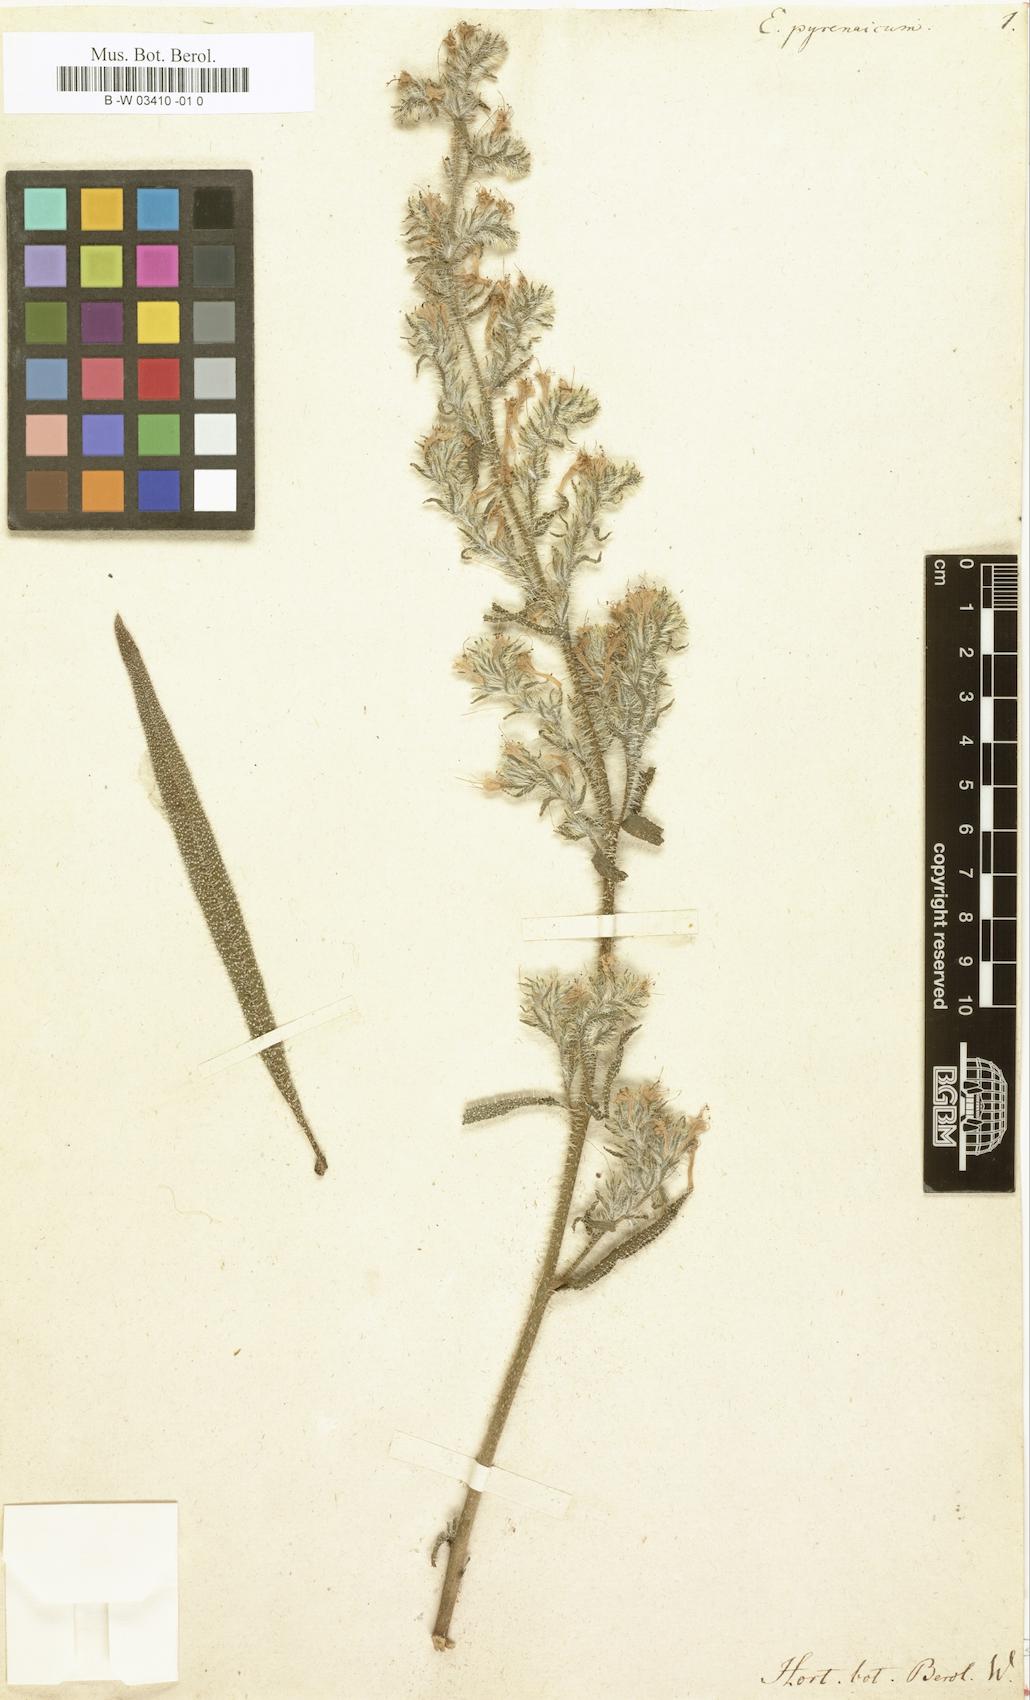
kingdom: Plantae
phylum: Tracheophyta
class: Magnoliopsida
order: Boraginales
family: Boraginaceae
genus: Echium
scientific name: Echium
